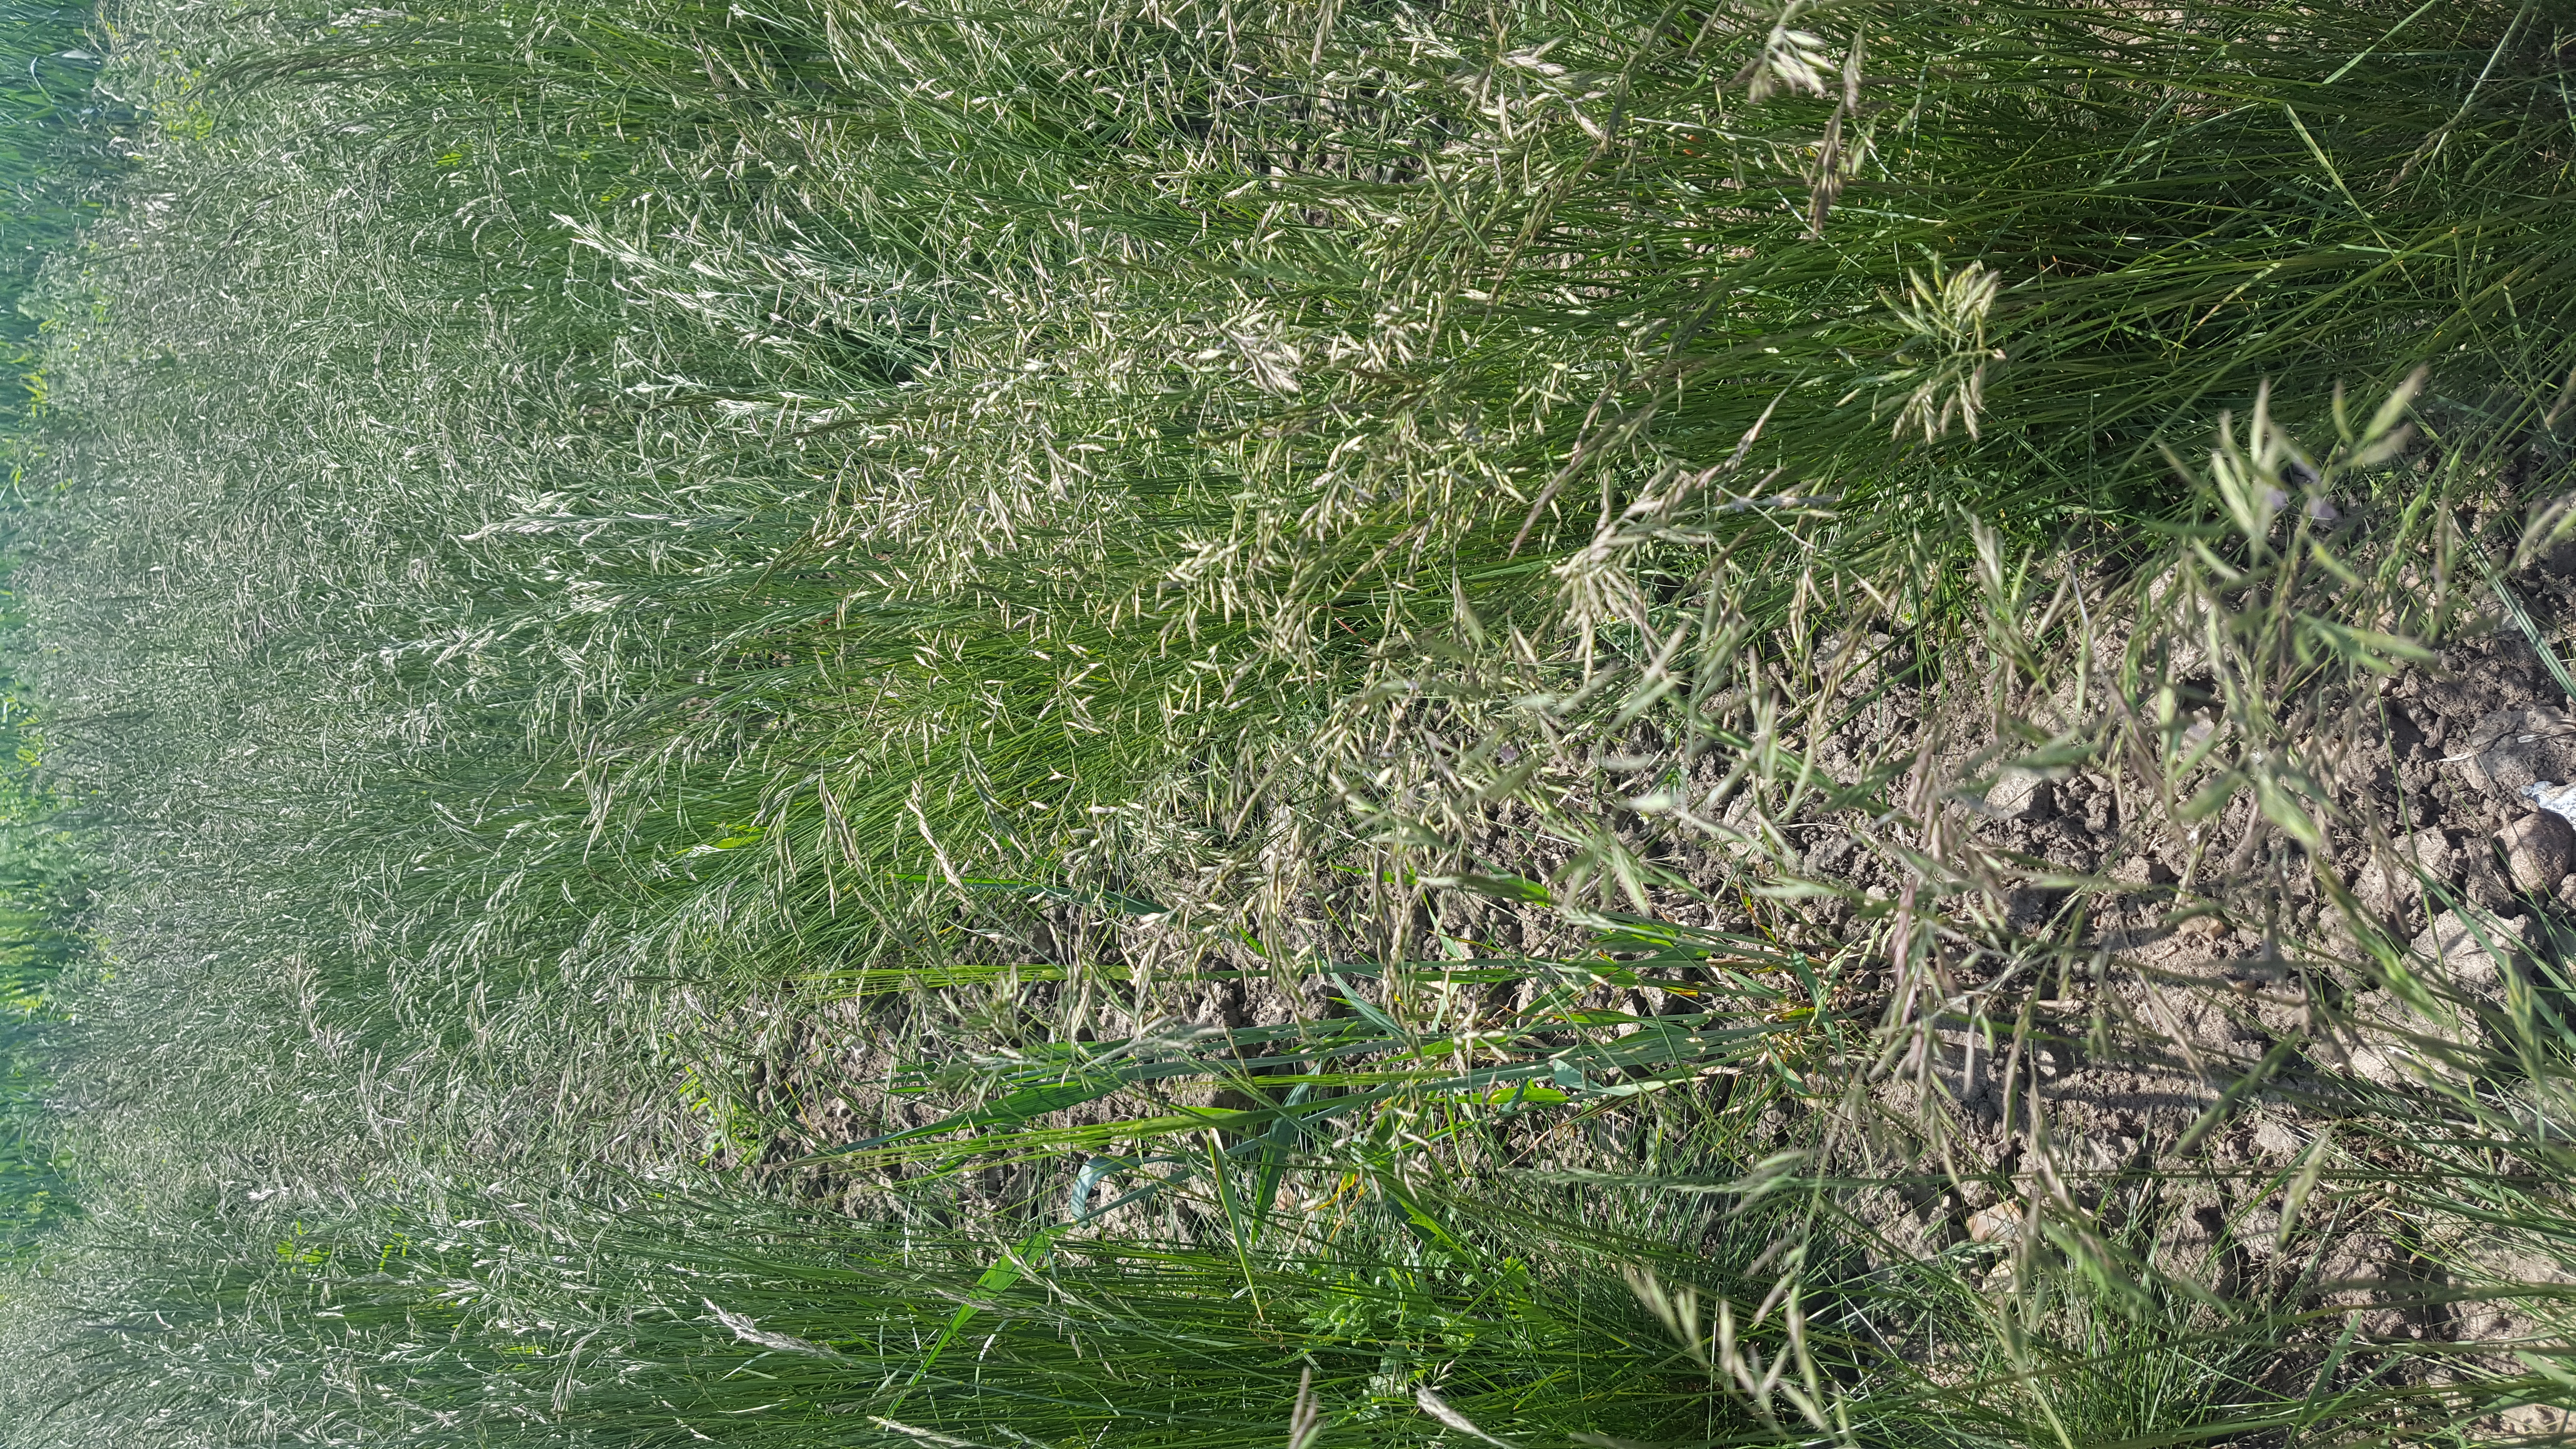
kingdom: Plantae
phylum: Tracheophyta
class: Liliopsida
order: Poales
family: Poaceae
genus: Festuca
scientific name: Festuca rubra
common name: Red fescue
